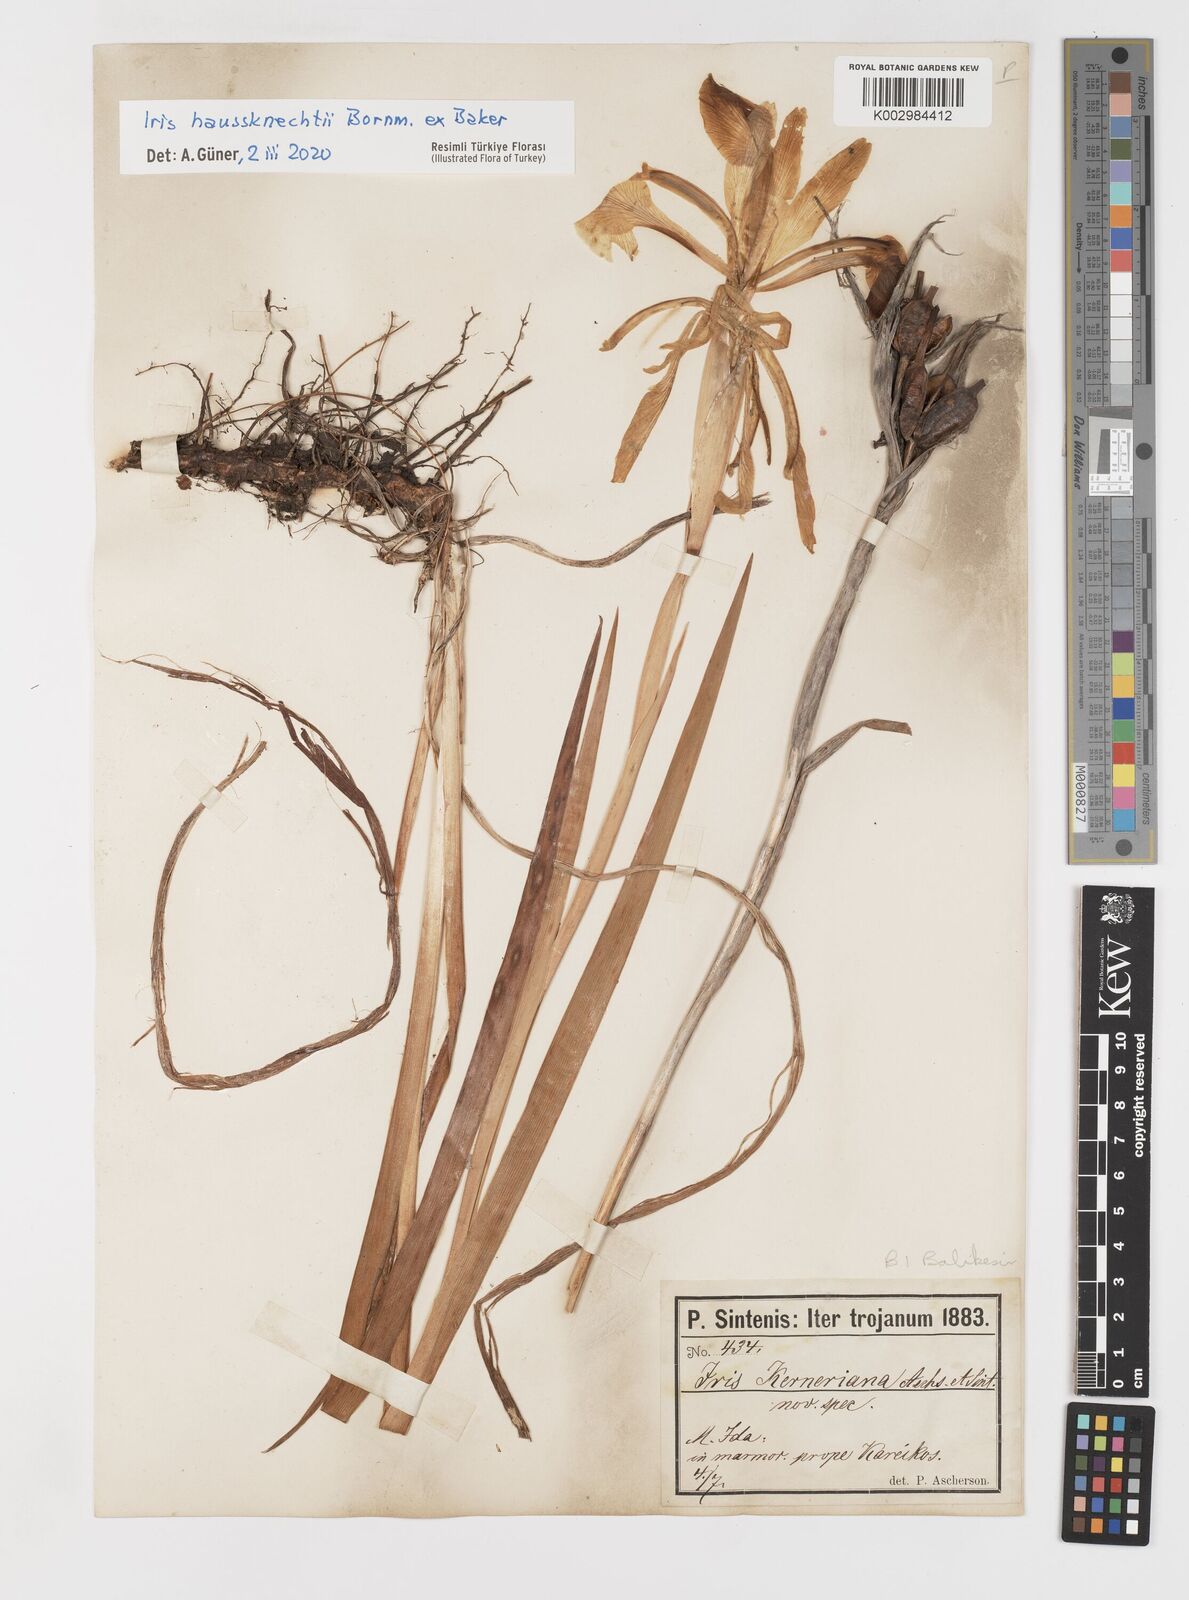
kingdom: Plantae
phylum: Tracheophyta
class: Liliopsida
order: Asparagales
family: Iridaceae
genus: Iris
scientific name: Iris haussknechtii
